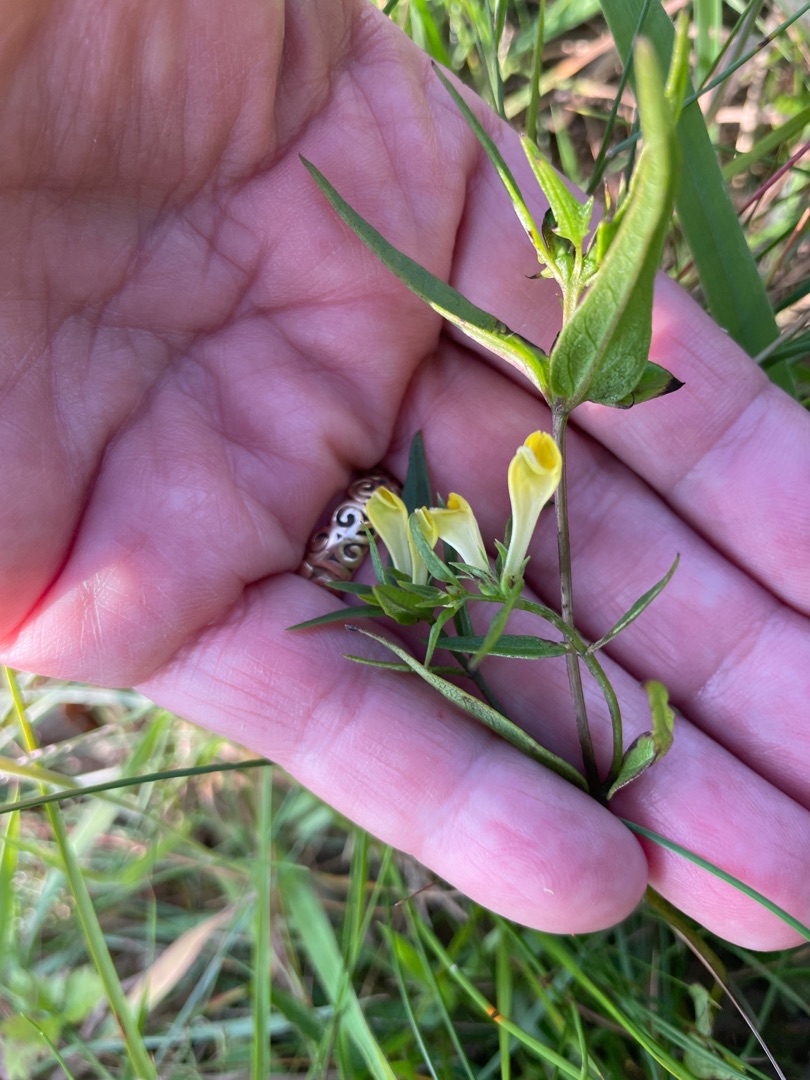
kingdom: Plantae
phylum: Tracheophyta
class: Magnoliopsida
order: Lamiales
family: Orobanchaceae
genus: Melampyrum
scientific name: Melampyrum pratense
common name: Almindelig kohvede
